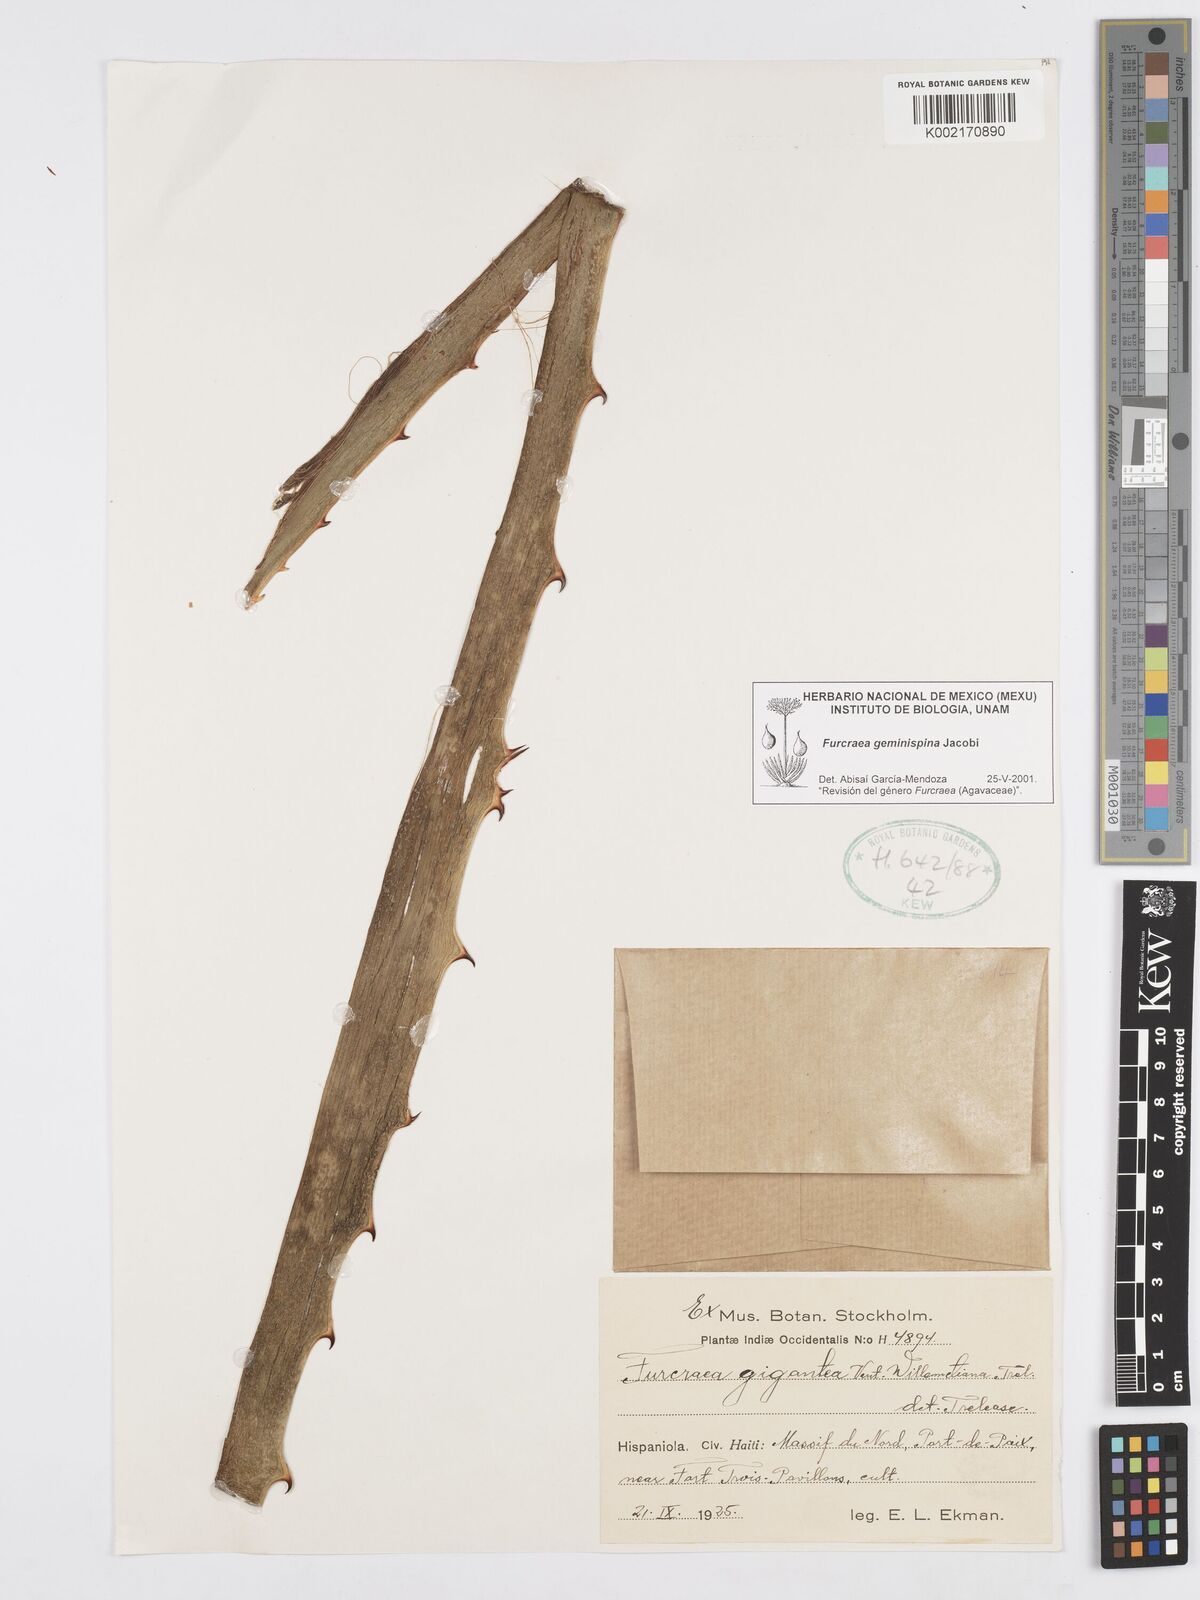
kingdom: Plantae
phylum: Tracheophyta
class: Liliopsida
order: Asparagales
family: Asparagaceae
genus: Furcraea
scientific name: Furcraea tuberosa
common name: Karata
